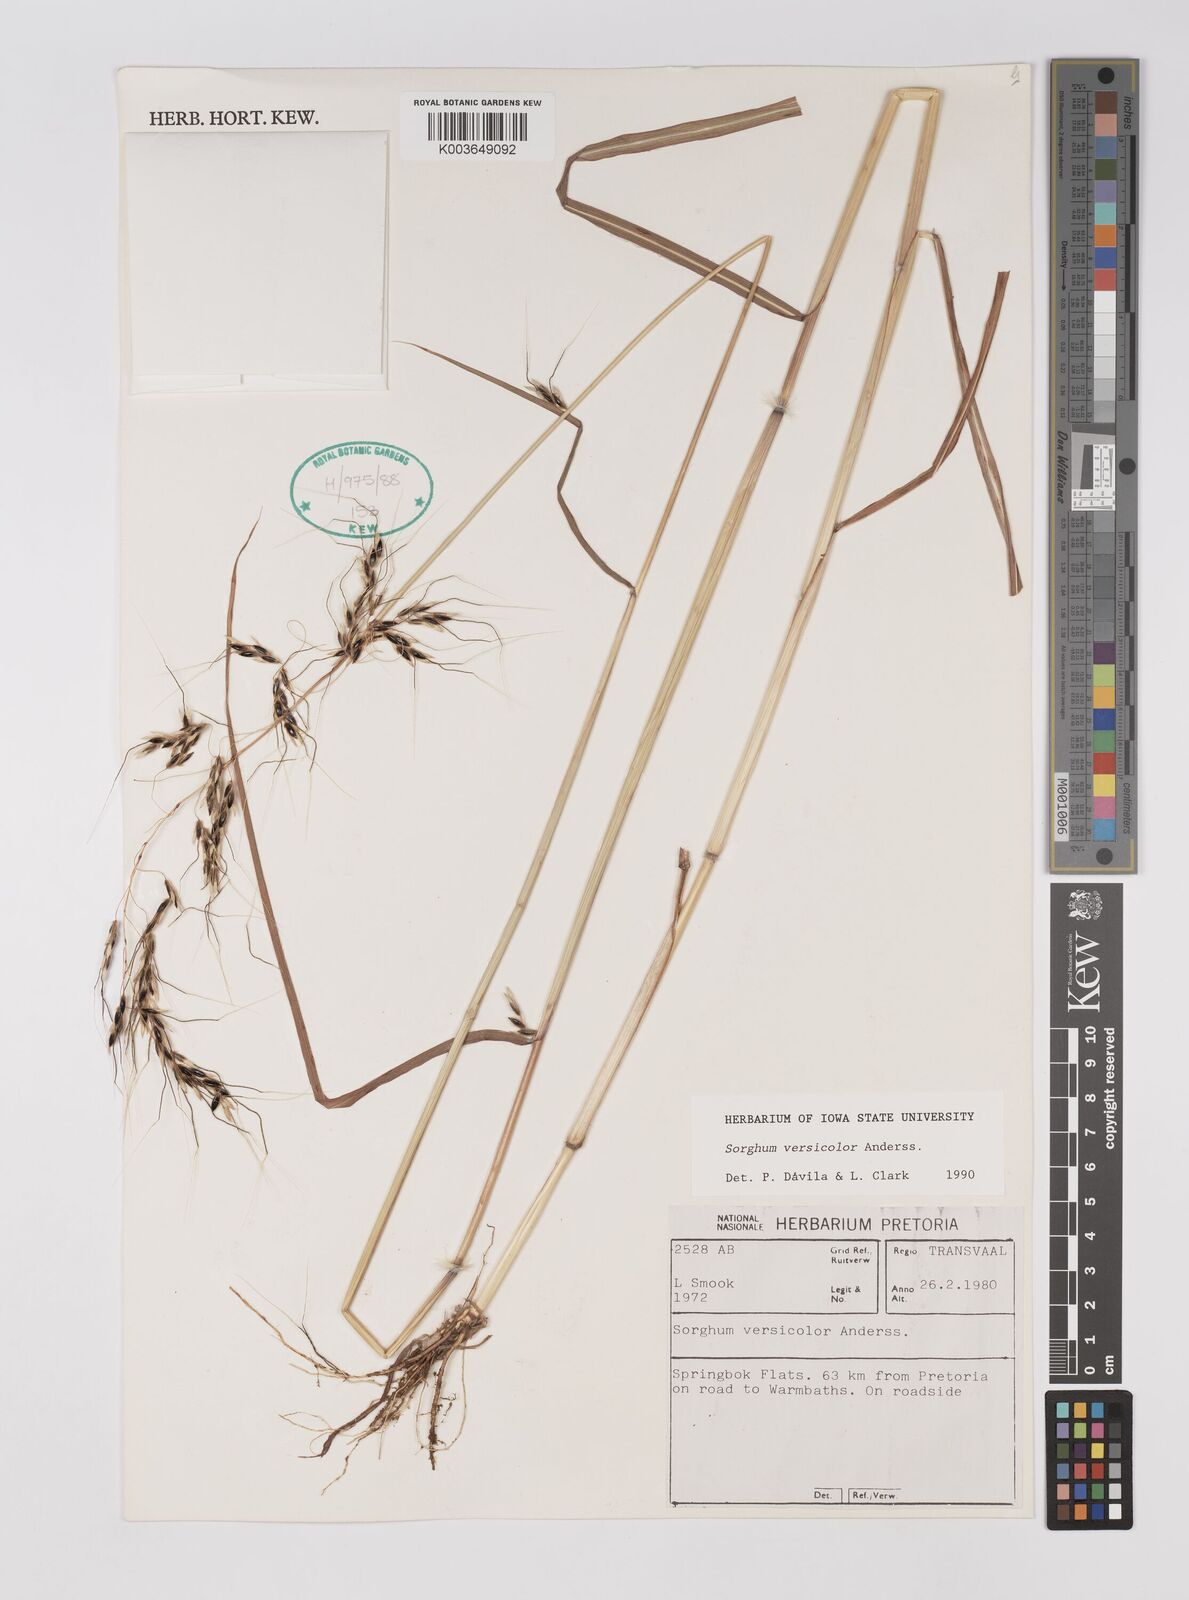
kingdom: Plantae
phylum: Tracheophyta
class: Liliopsida
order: Poales
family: Poaceae
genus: Sarga
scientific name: Sarga versicolor
